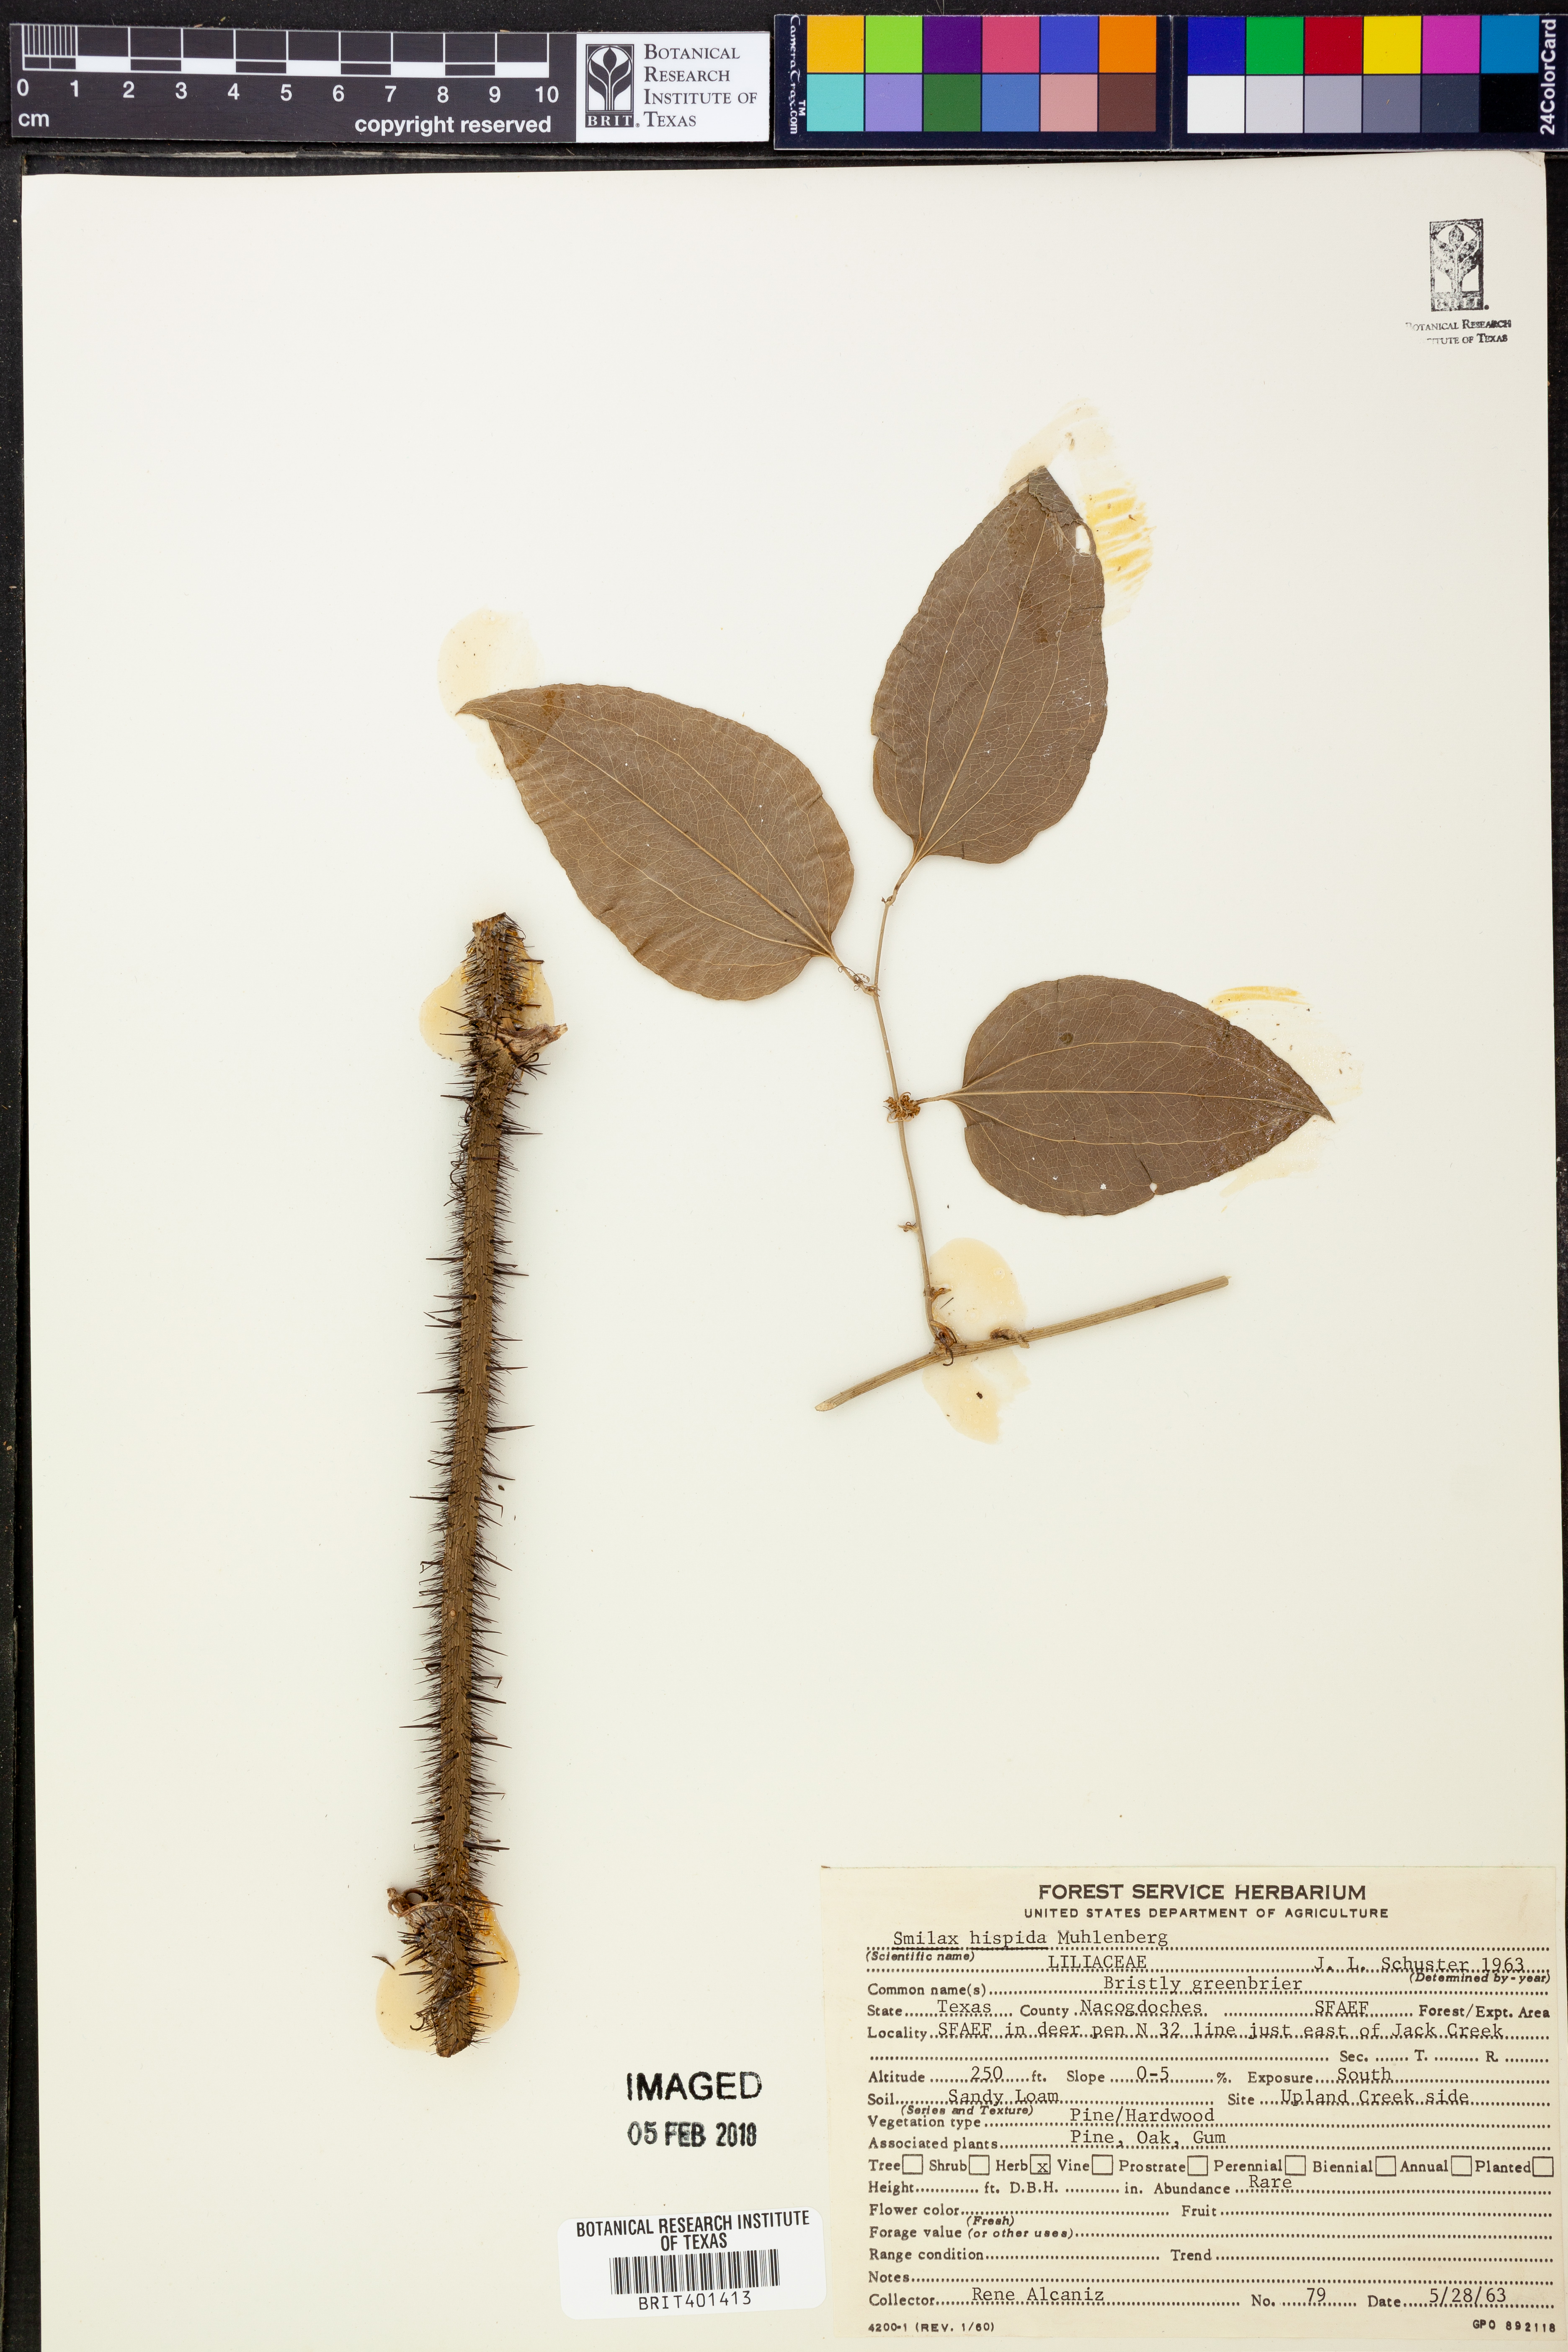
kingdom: Plantae
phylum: Tracheophyta
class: Liliopsida
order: Liliales
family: Smilacaceae
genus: Smilax
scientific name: Smilax tamnoides
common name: Hellfetter
